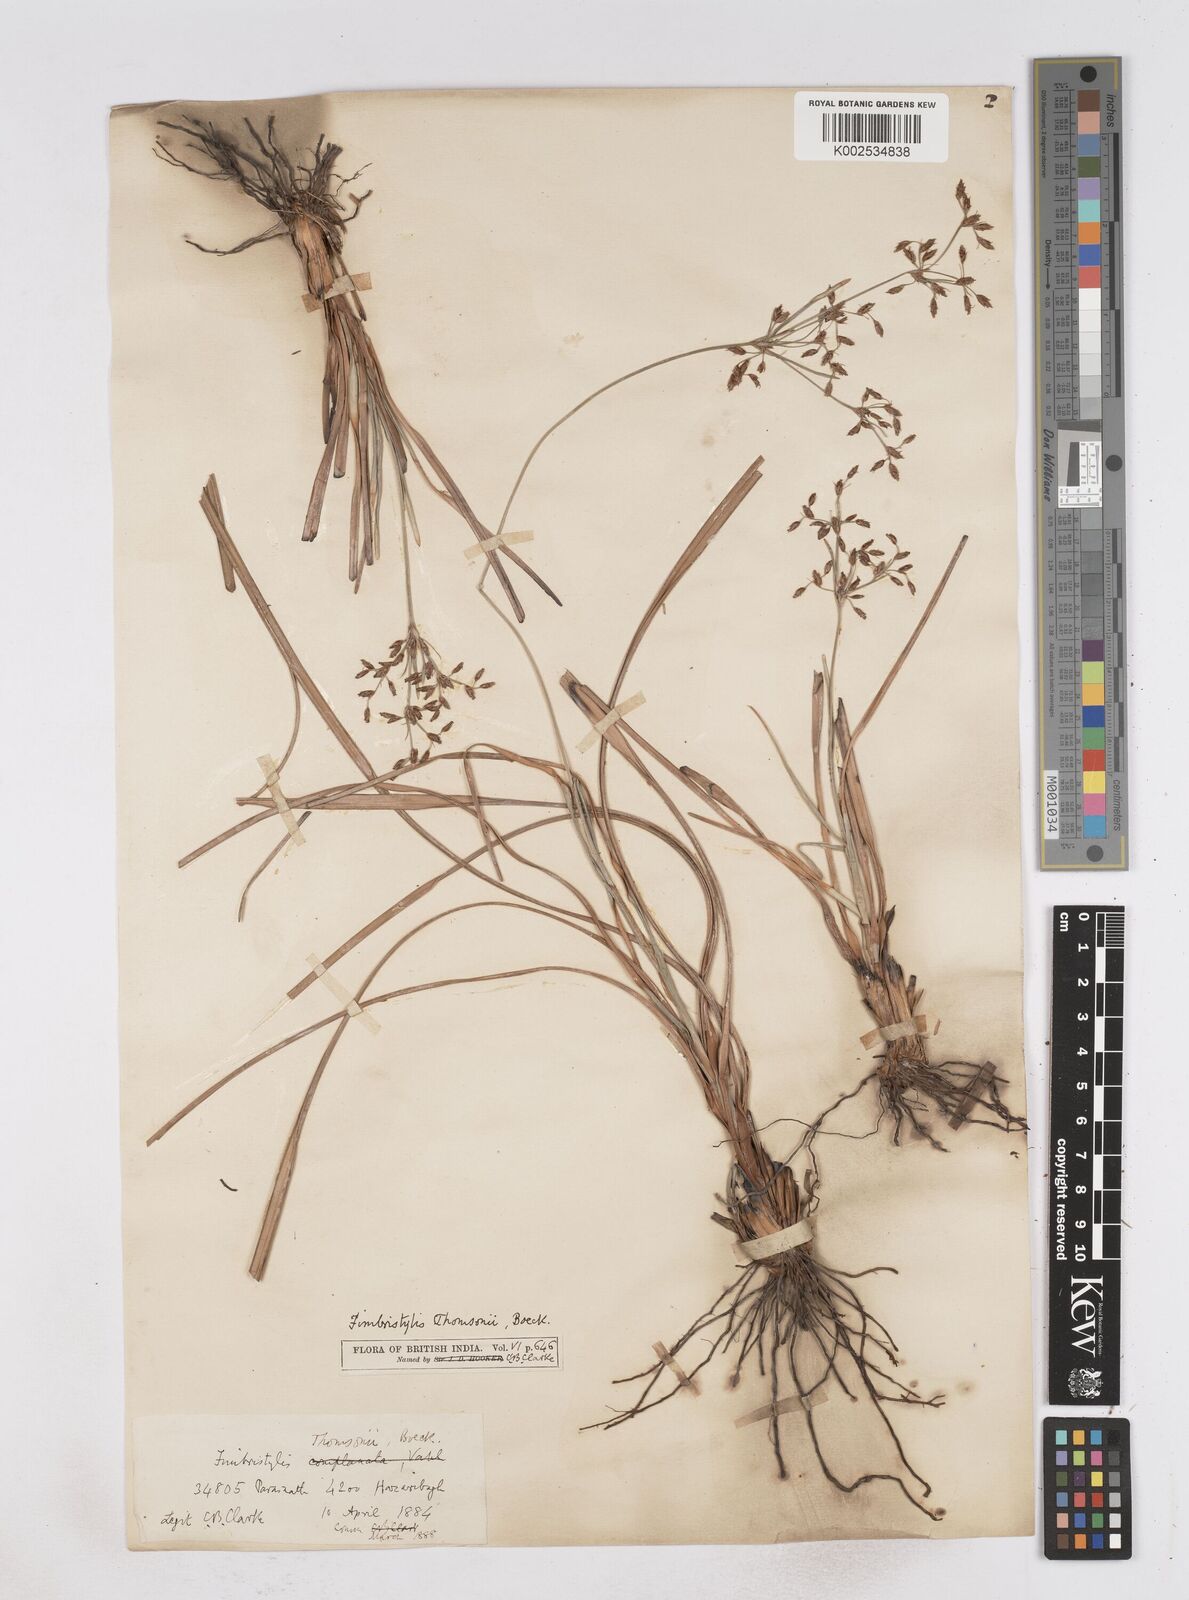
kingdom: Plantae
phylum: Tracheophyta
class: Liliopsida
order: Poales
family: Cyperaceae
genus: Fimbristylis
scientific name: Fimbristylis thomsonii
